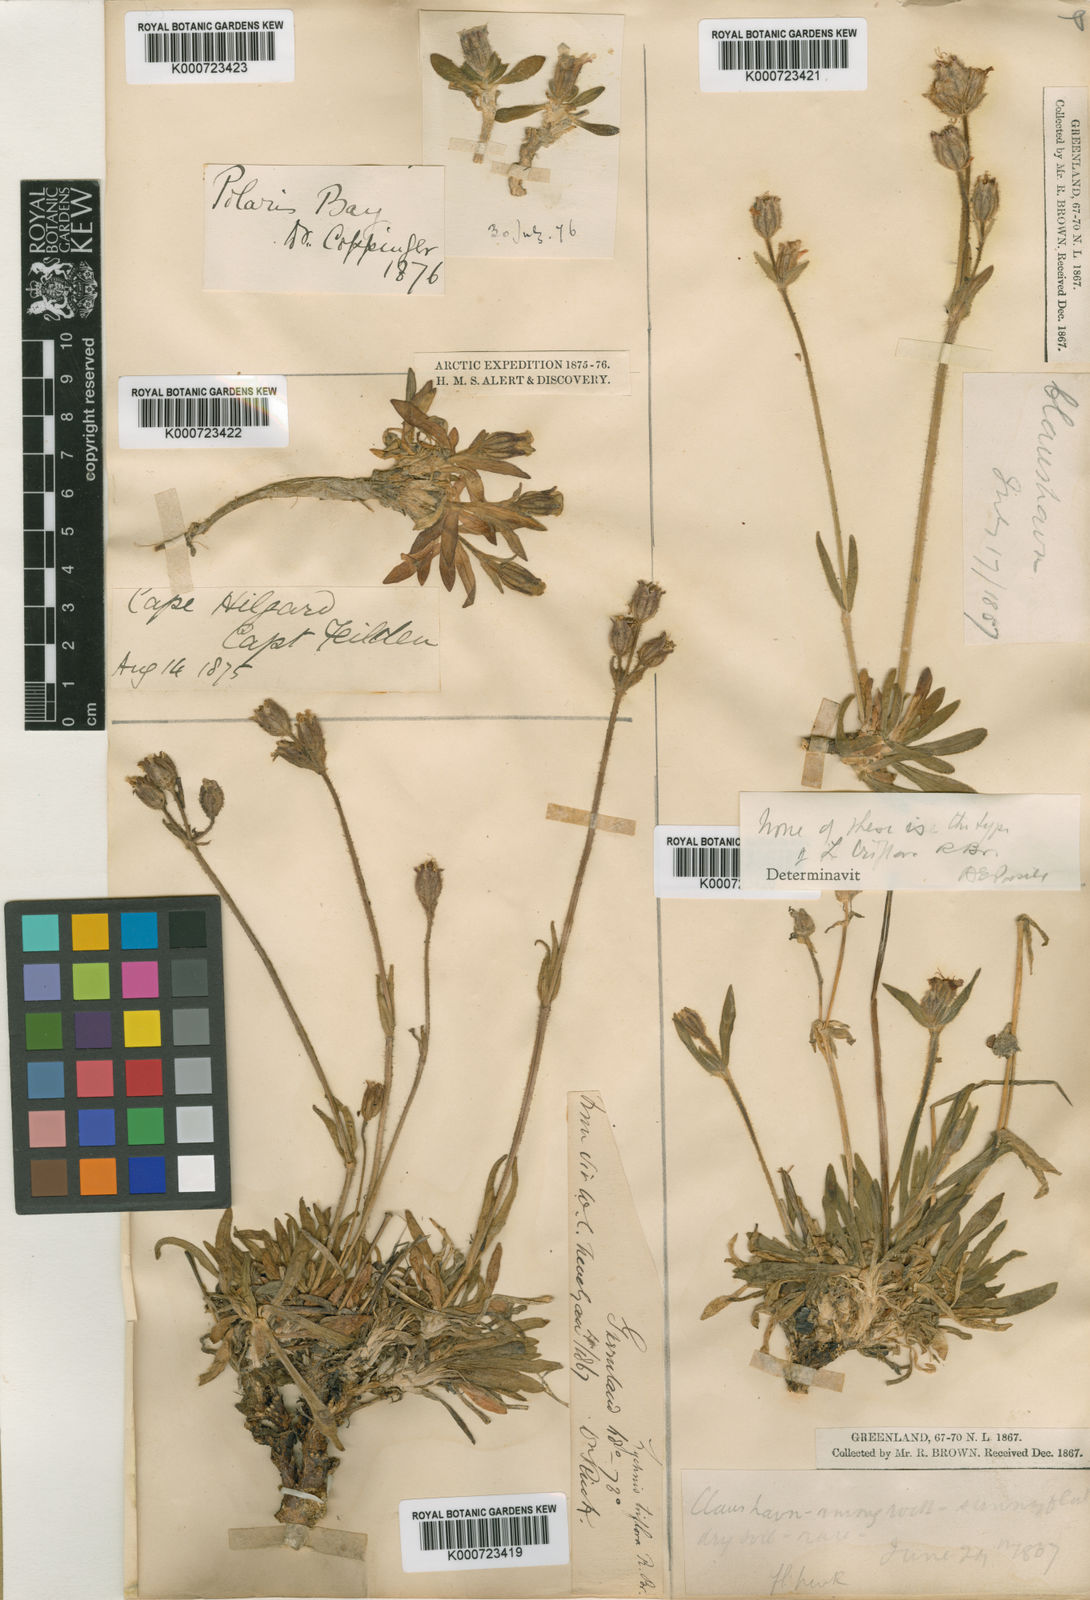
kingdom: Plantae
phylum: Tracheophyta
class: Magnoliopsida
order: Caryophyllales
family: Caryophyllaceae
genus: Silene
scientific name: Silene
